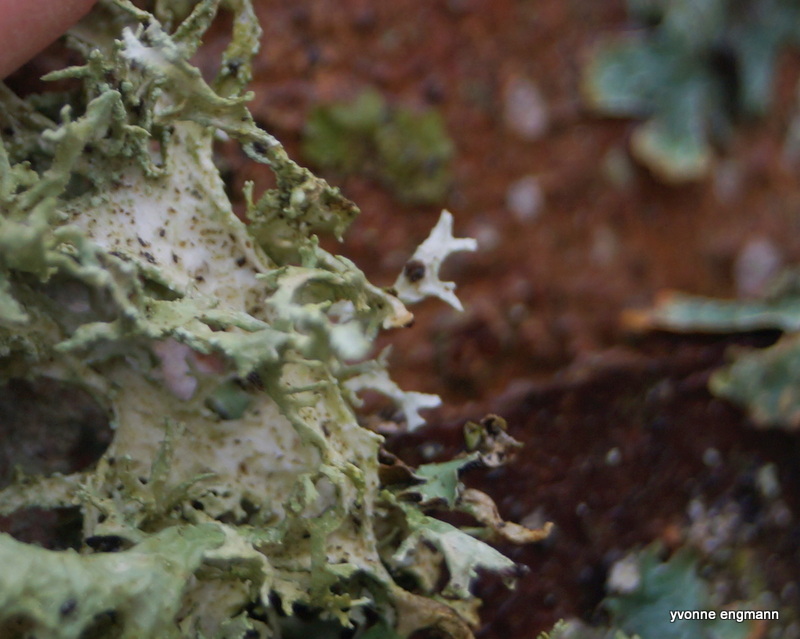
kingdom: Fungi
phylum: Ascomycota
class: Lecanoromycetes
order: Lecanorales
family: Parmeliaceae
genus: Evernia
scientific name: Evernia prunastri
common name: almindelig slåenlav
